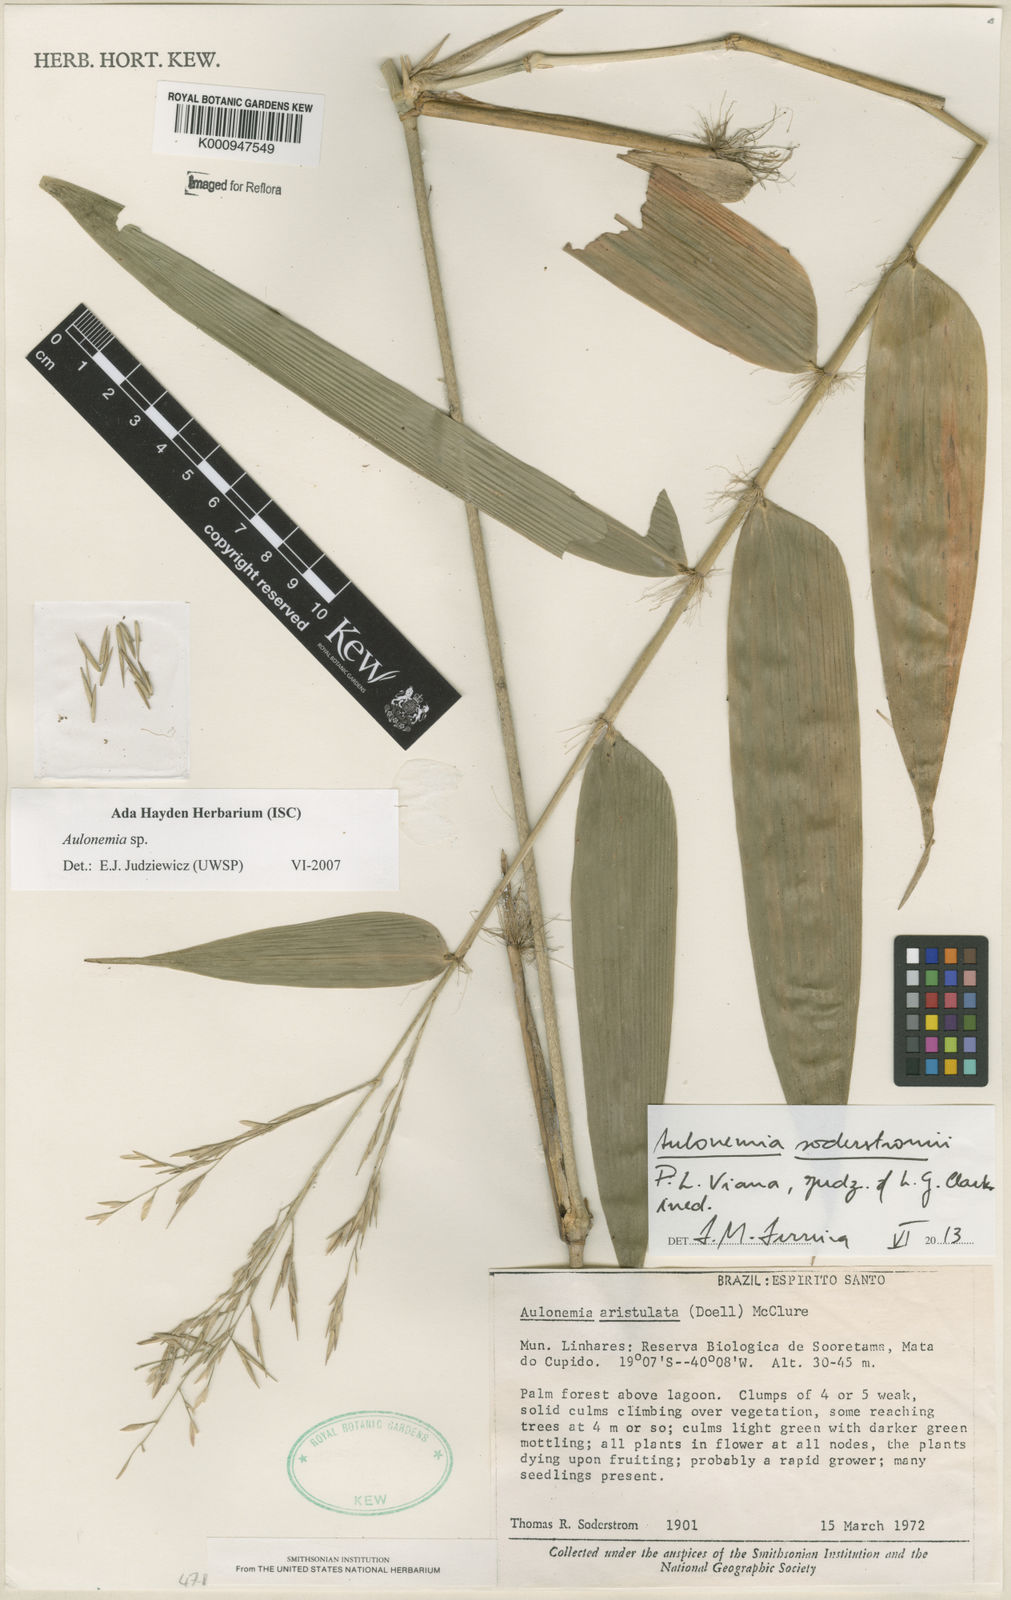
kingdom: Plantae
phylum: Tracheophyta
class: Liliopsida
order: Poales
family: Poaceae
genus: Aulonemia
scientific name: Aulonemia
